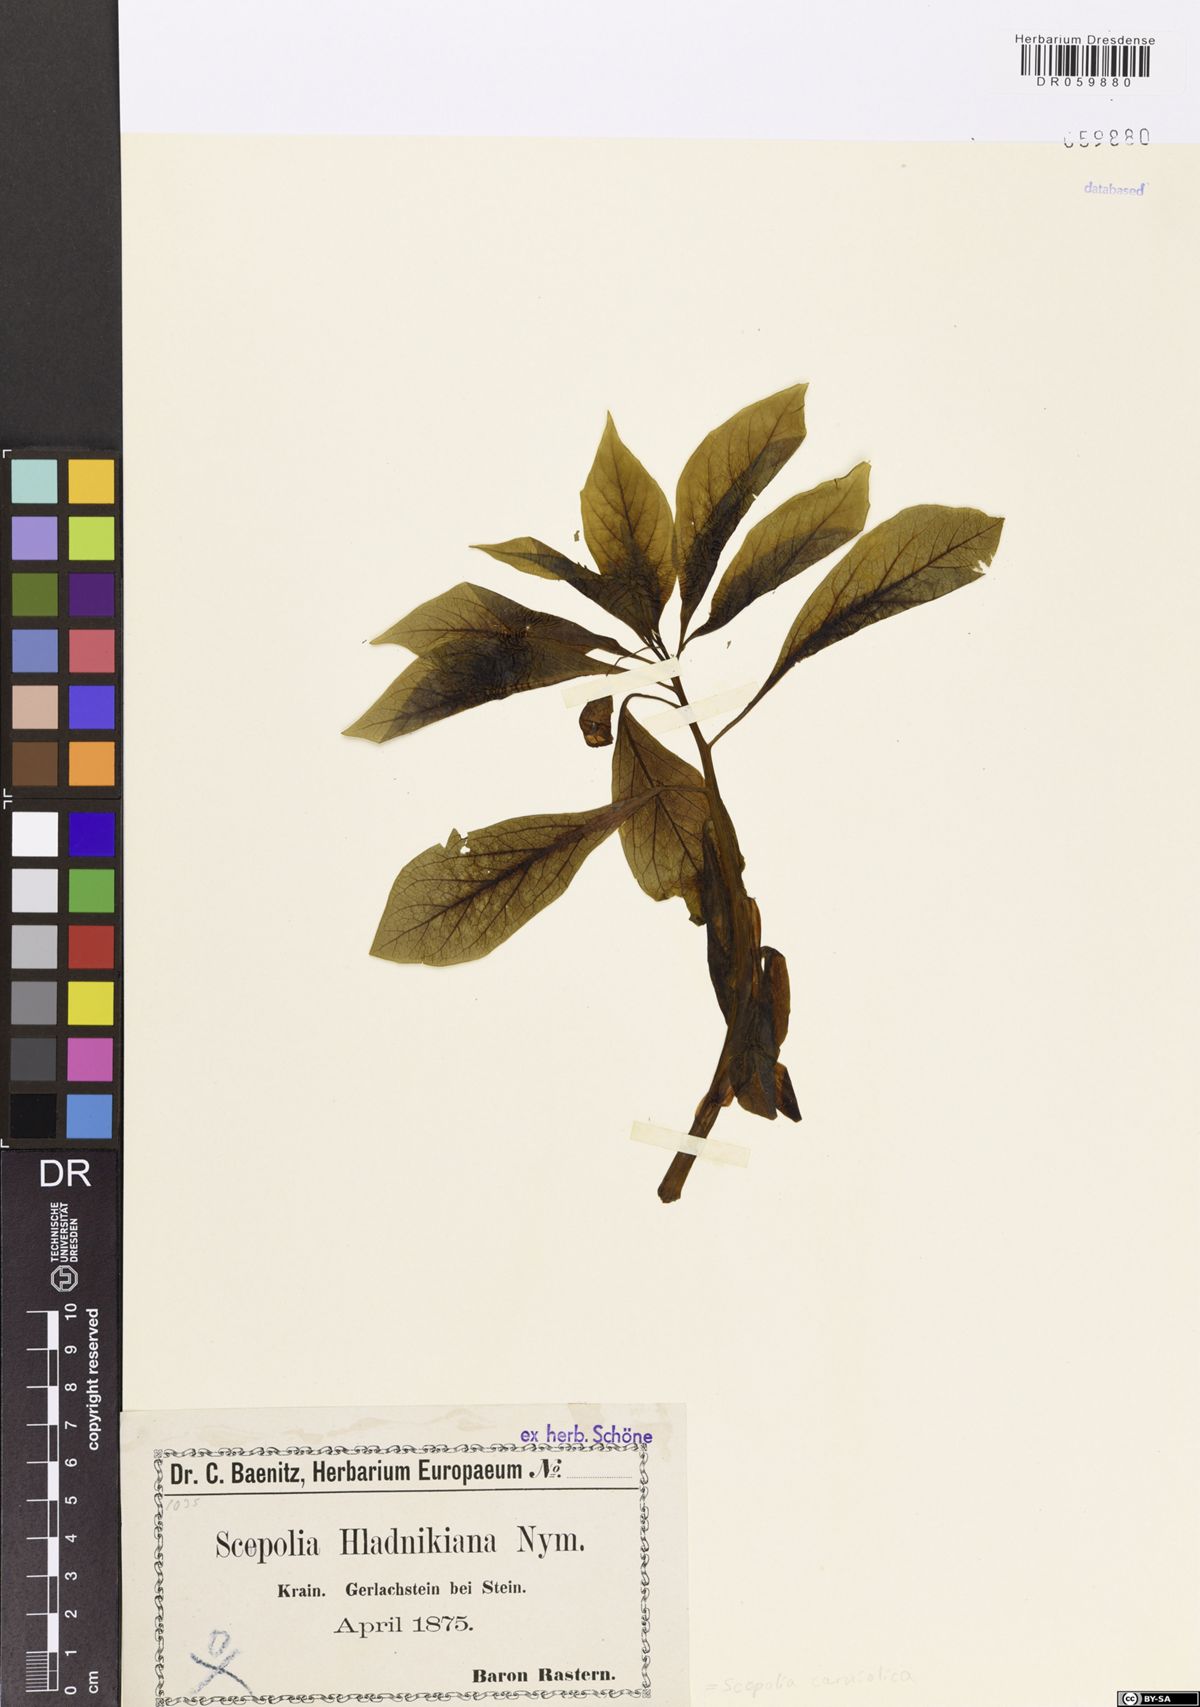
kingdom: Plantae
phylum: Tracheophyta
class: Magnoliopsida
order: Solanales
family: Solanaceae
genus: Scopolia
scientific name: Scopolia carniolica
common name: Scopolia
